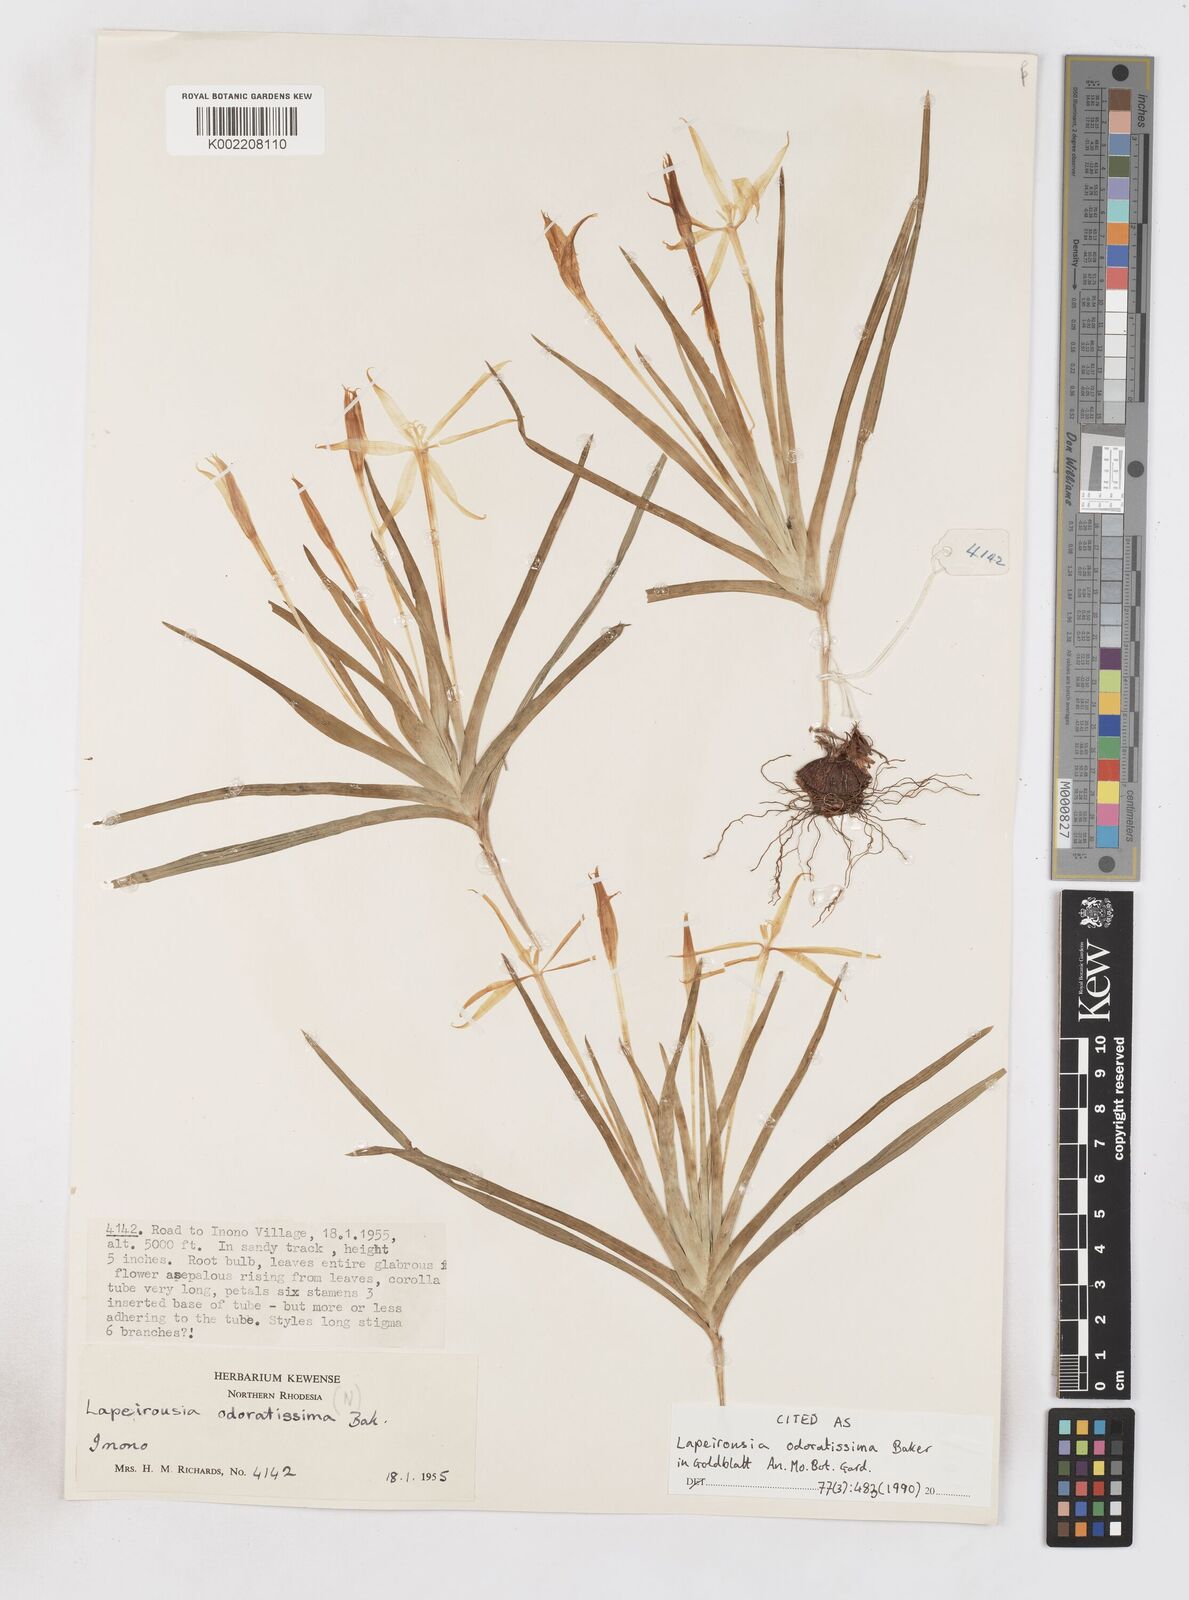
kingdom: Plantae
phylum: Tracheophyta
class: Liliopsida
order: Asparagales
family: Iridaceae
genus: Lapeirousia
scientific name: Lapeirousia odoratissima
